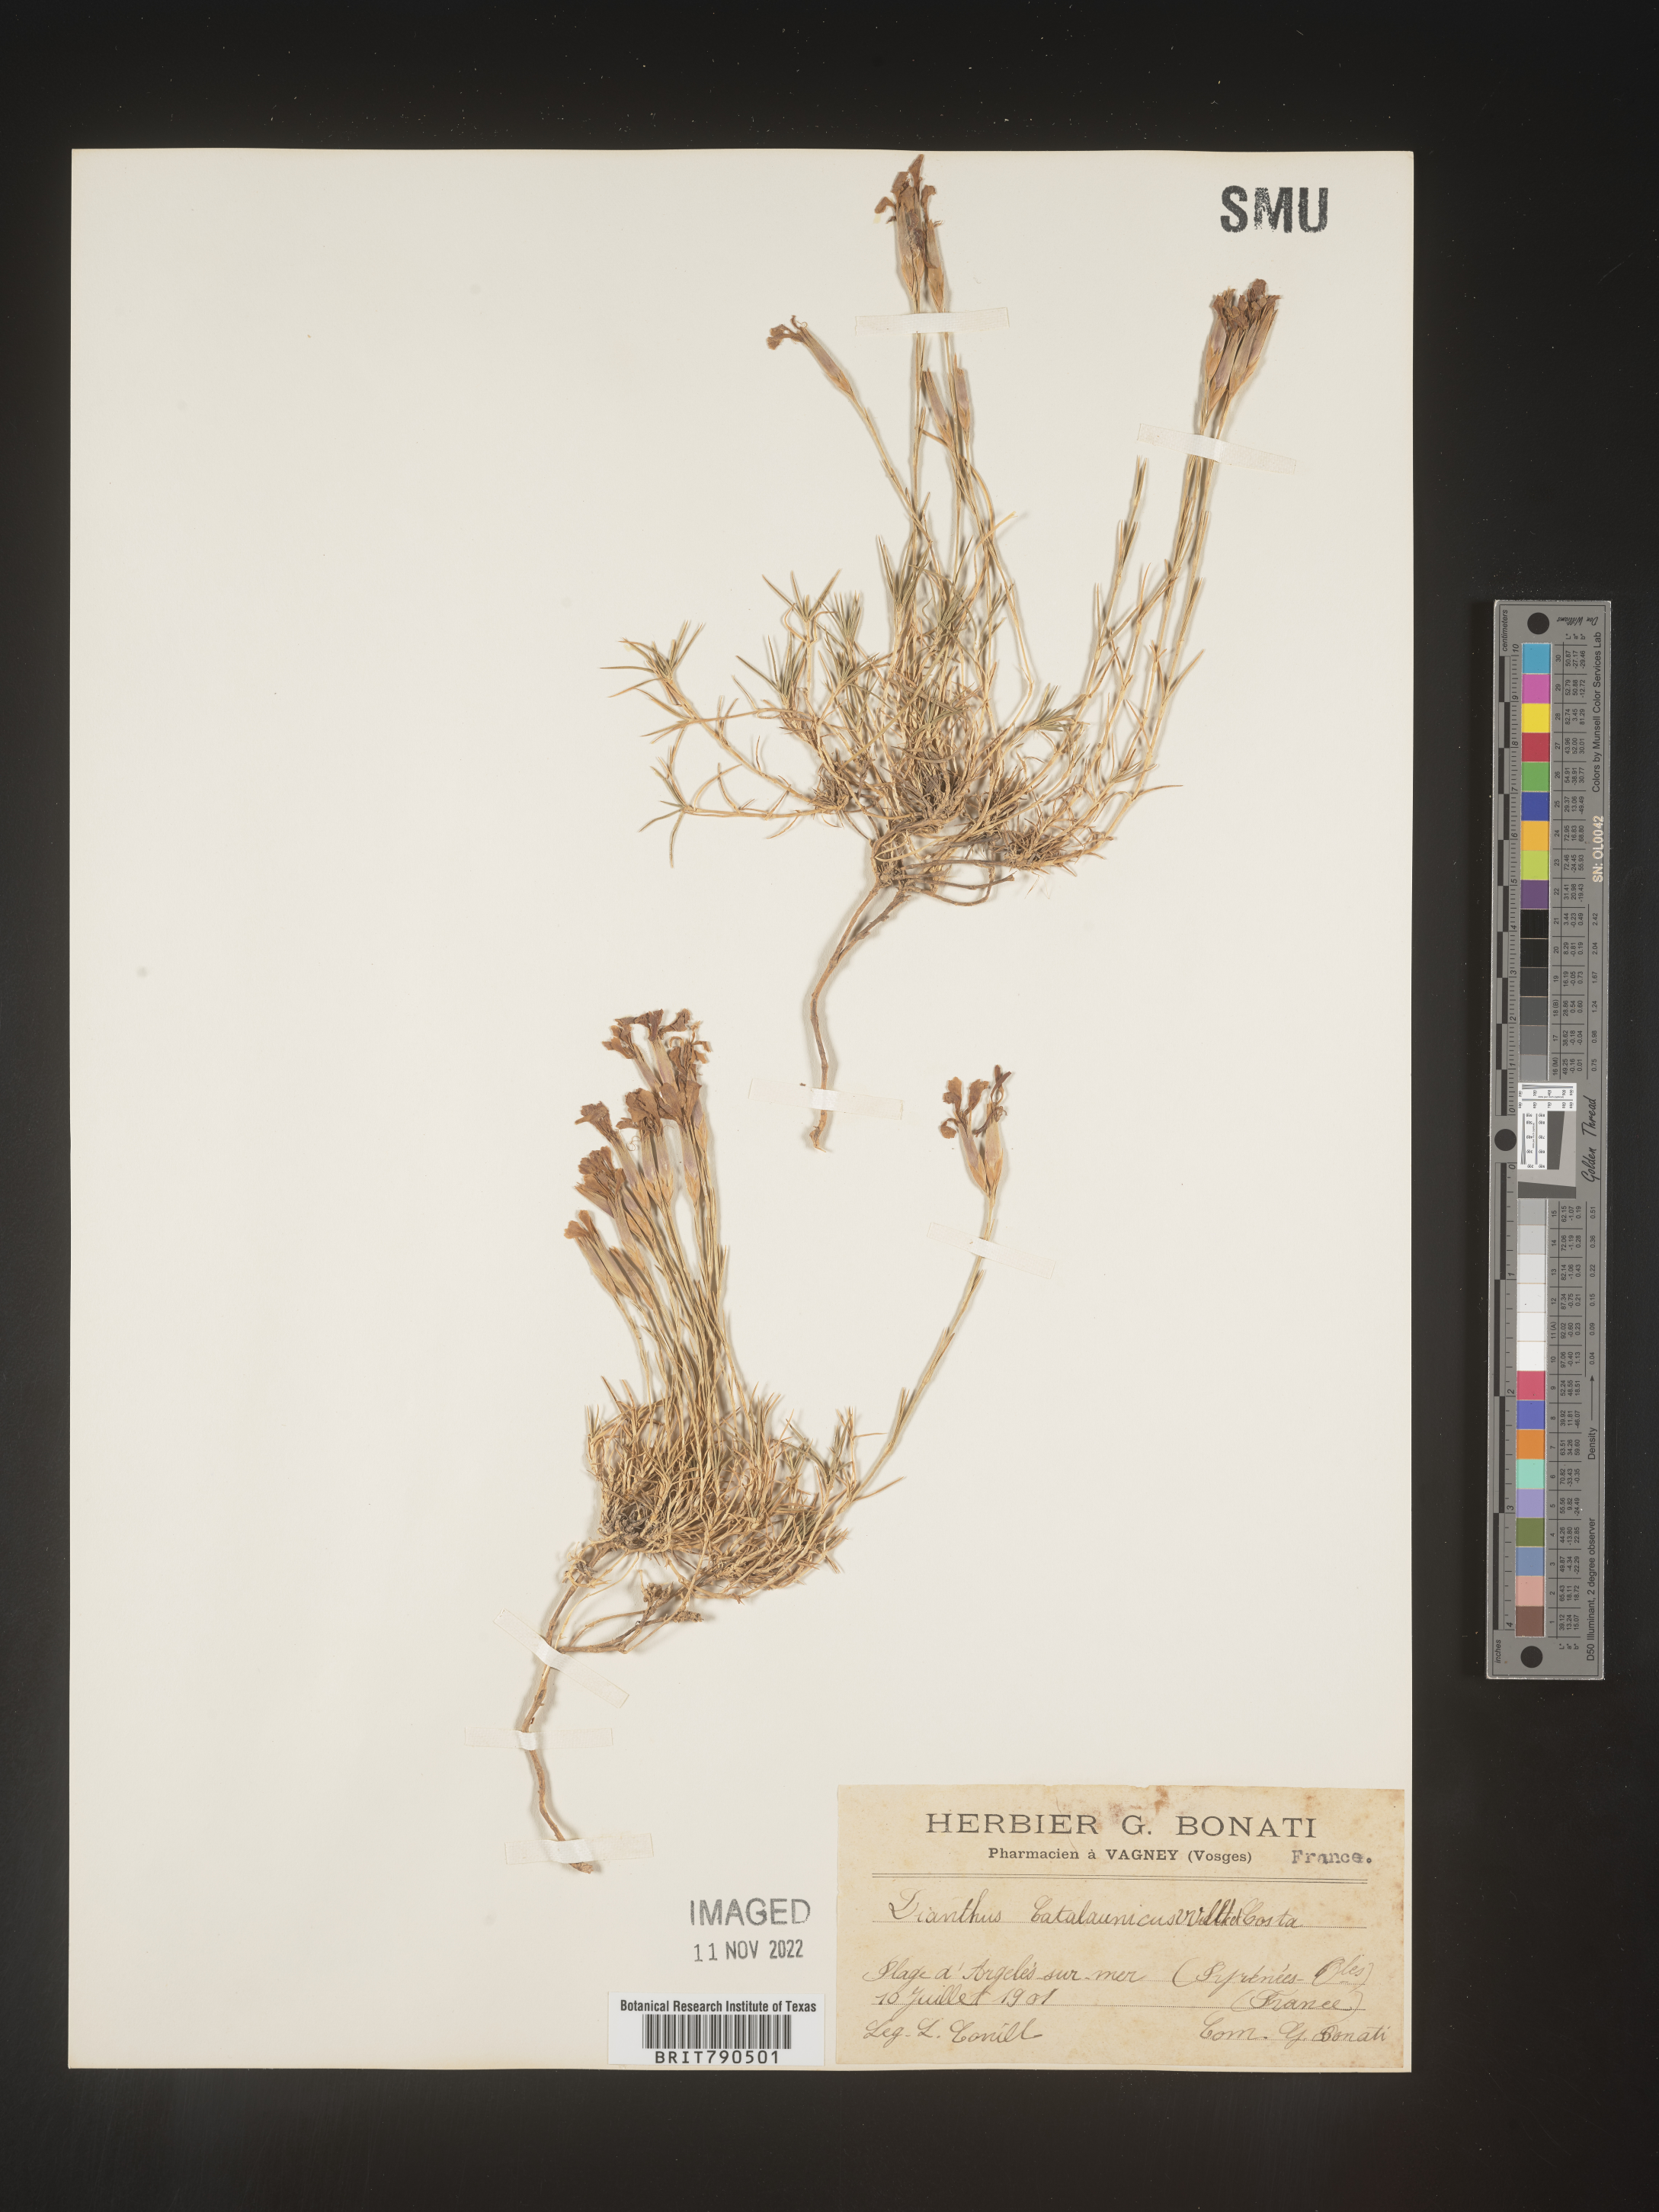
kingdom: Plantae
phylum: Tracheophyta
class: Magnoliopsida
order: Caryophyllales
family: Caryophyllaceae
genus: Dianthus
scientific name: Dianthus
